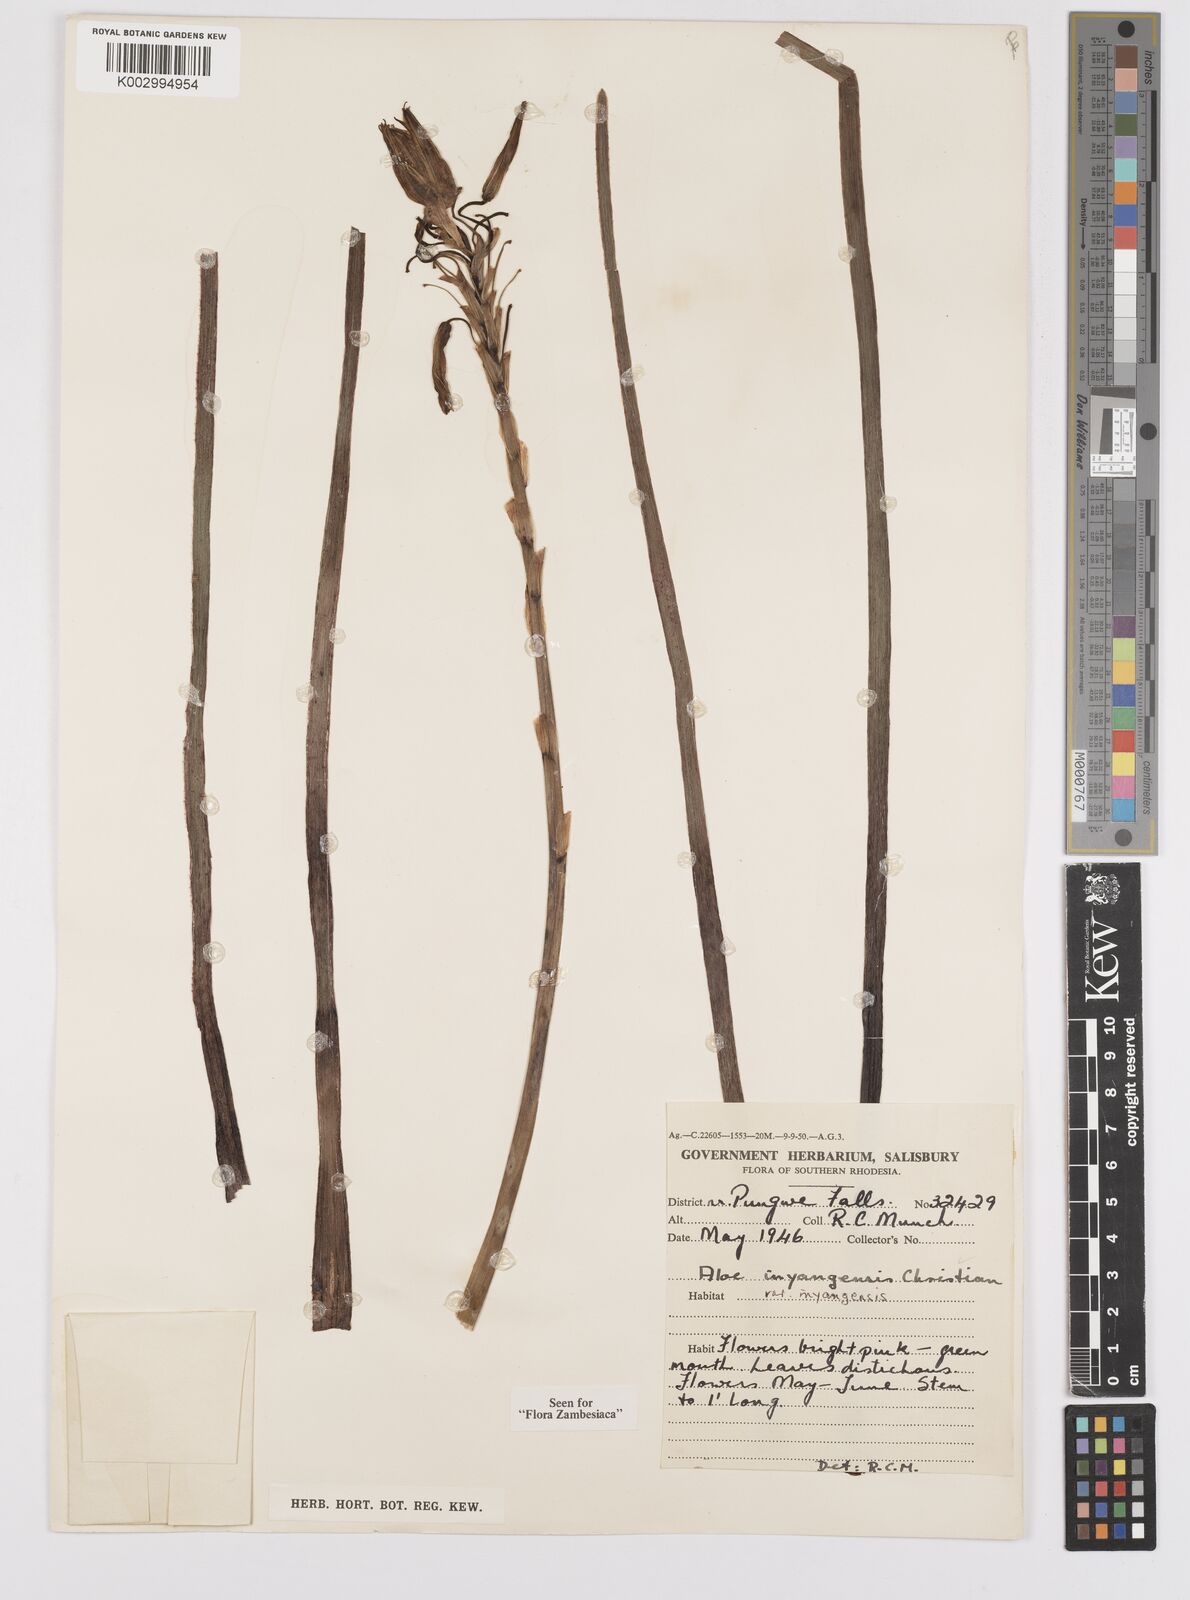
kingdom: Plantae
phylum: Tracheophyta
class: Liliopsida
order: Asparagales
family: Asphodelaceae
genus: Aloe
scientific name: Aloe inyangensis
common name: Inyanga aloe
